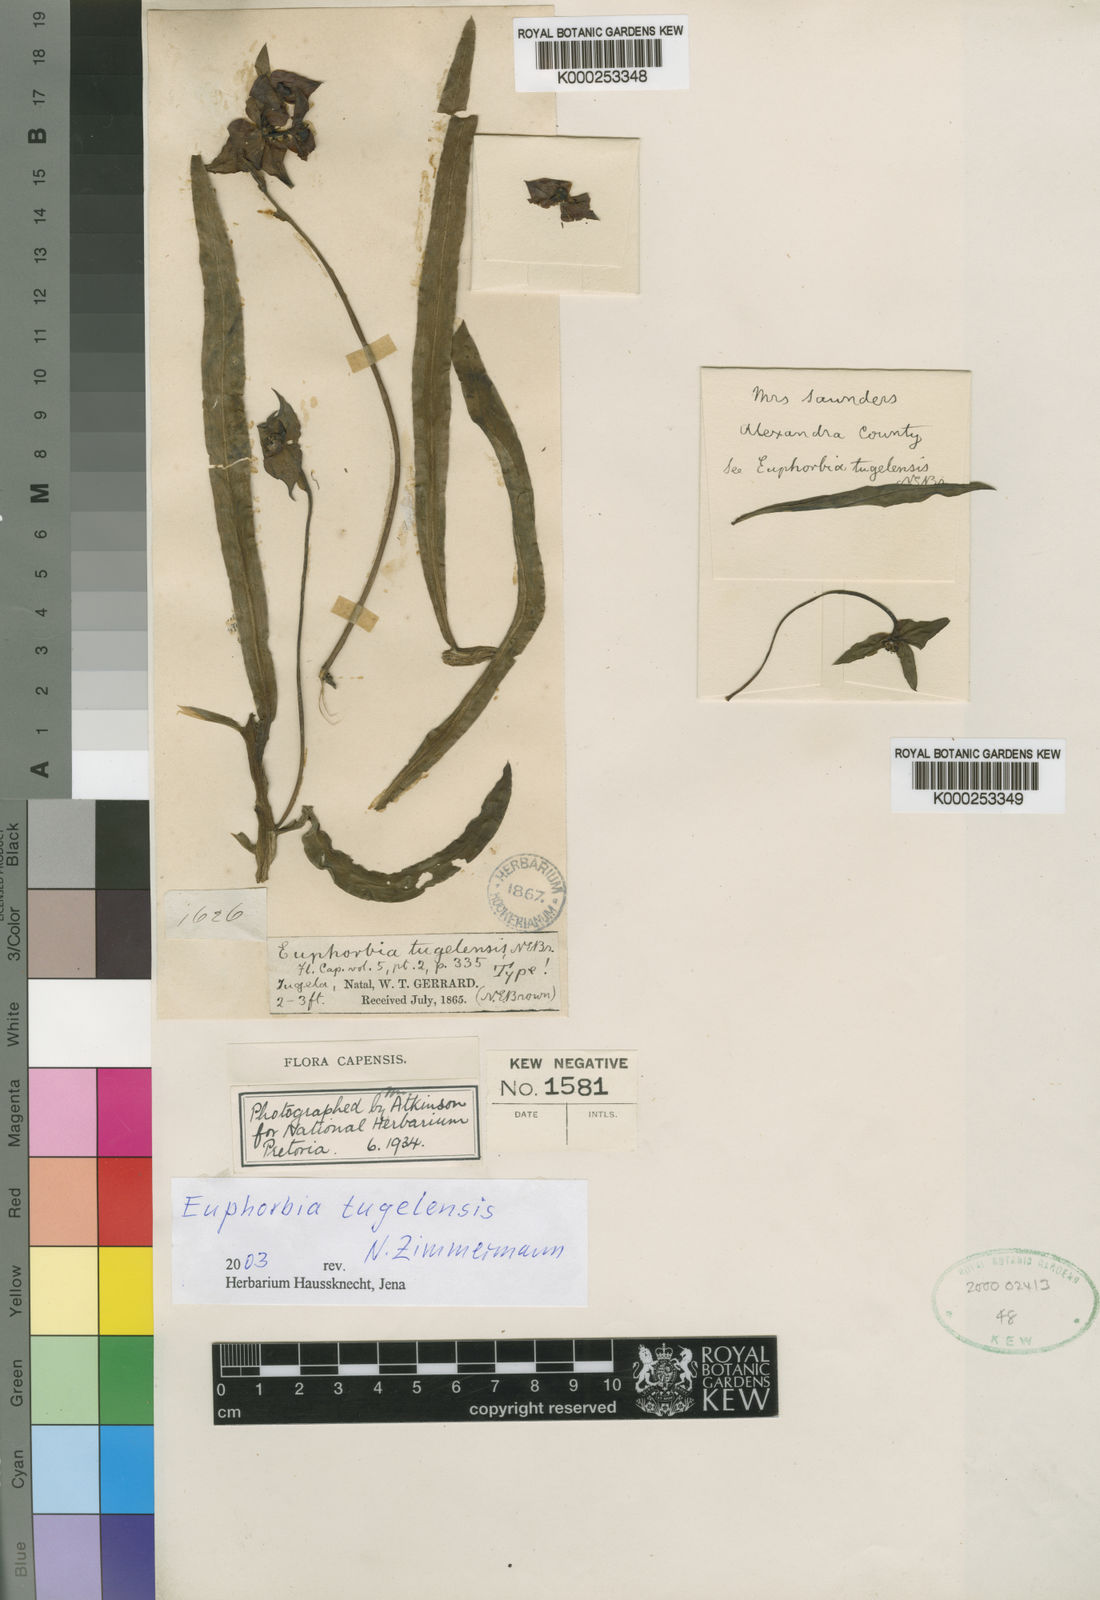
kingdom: Plantae
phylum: Tracheophyta
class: Magnoliopsida
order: Malpighiales
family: Euphorbiaceae
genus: Euphorbia
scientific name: Euphorbia bubalina
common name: Buffalo euphorbia
